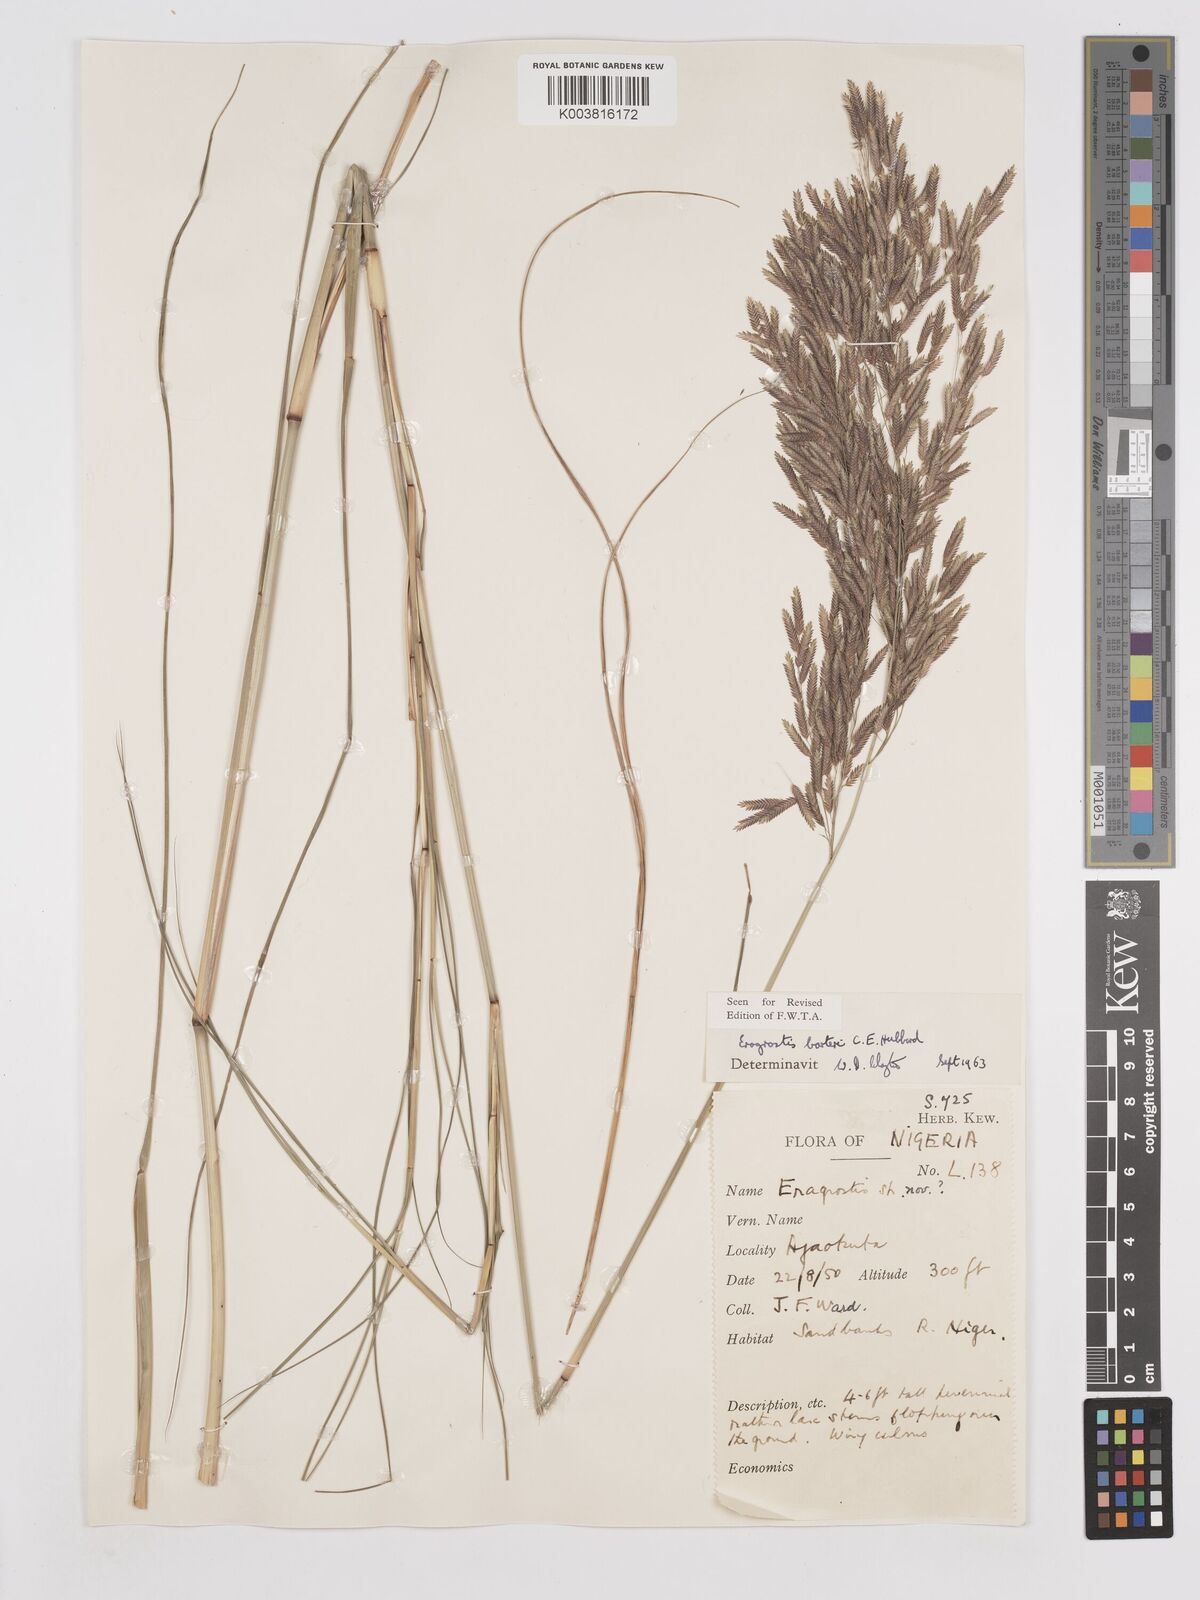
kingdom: Plantae
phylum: Tracheophyta
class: Liliopsida
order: Poales
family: Poaceae
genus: Eragrostis
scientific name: Eragrostis barteri
